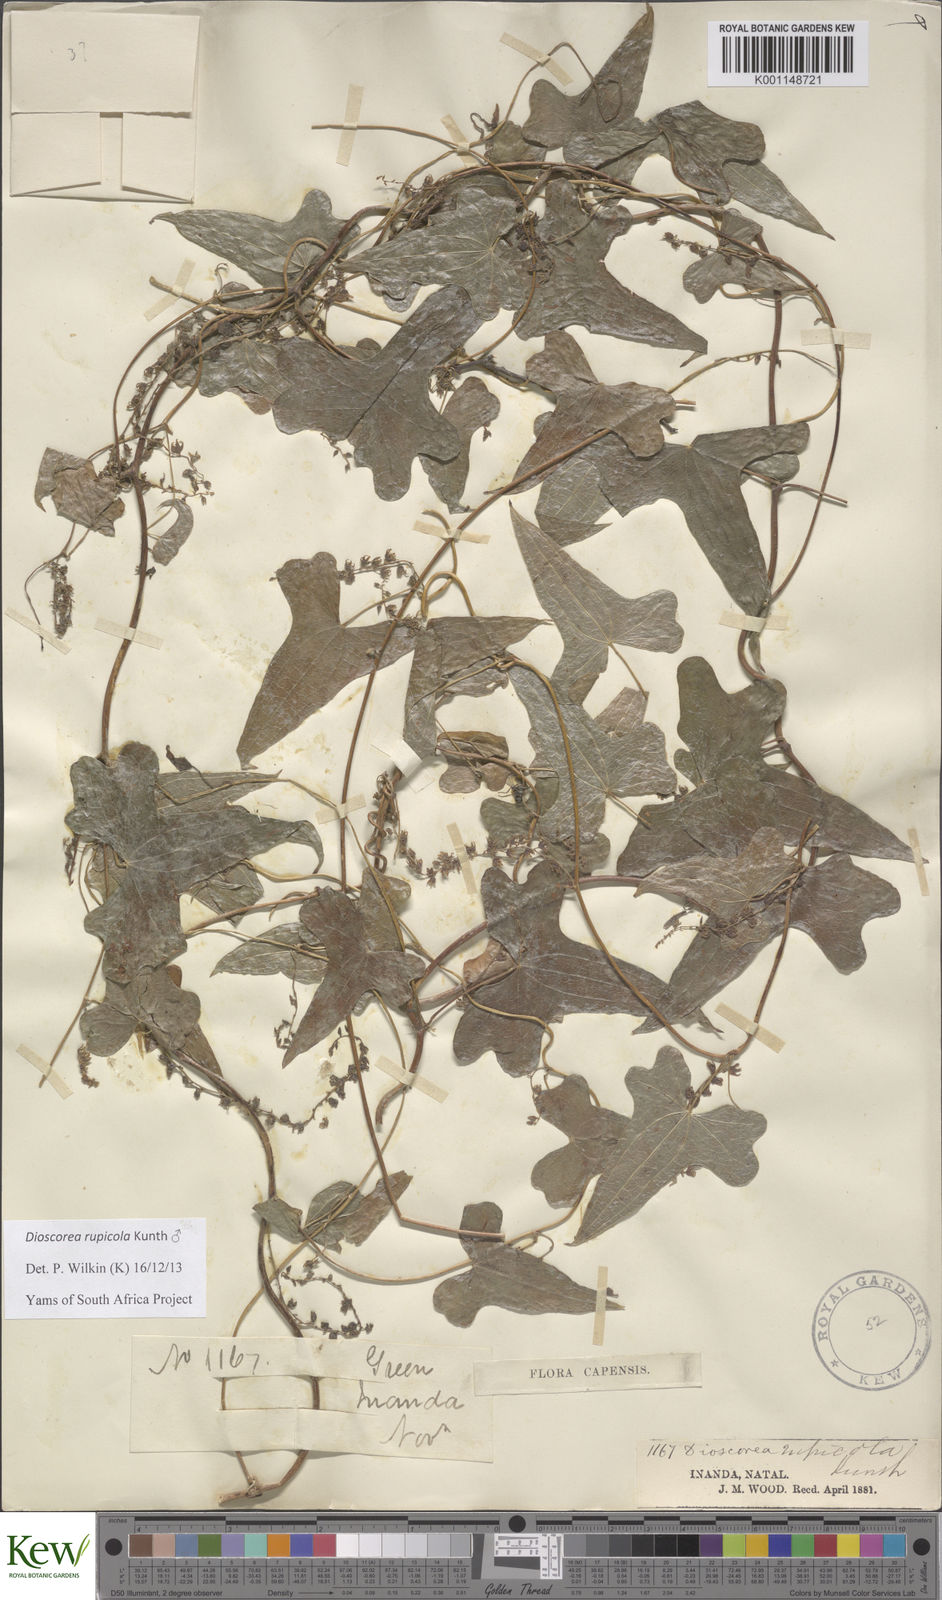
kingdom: Plantae
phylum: Tracheophyta
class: Liliopsida
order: Dioscoreales
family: Dioscoreaceae
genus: Dioscorea
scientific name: Dioscorea rupicola
